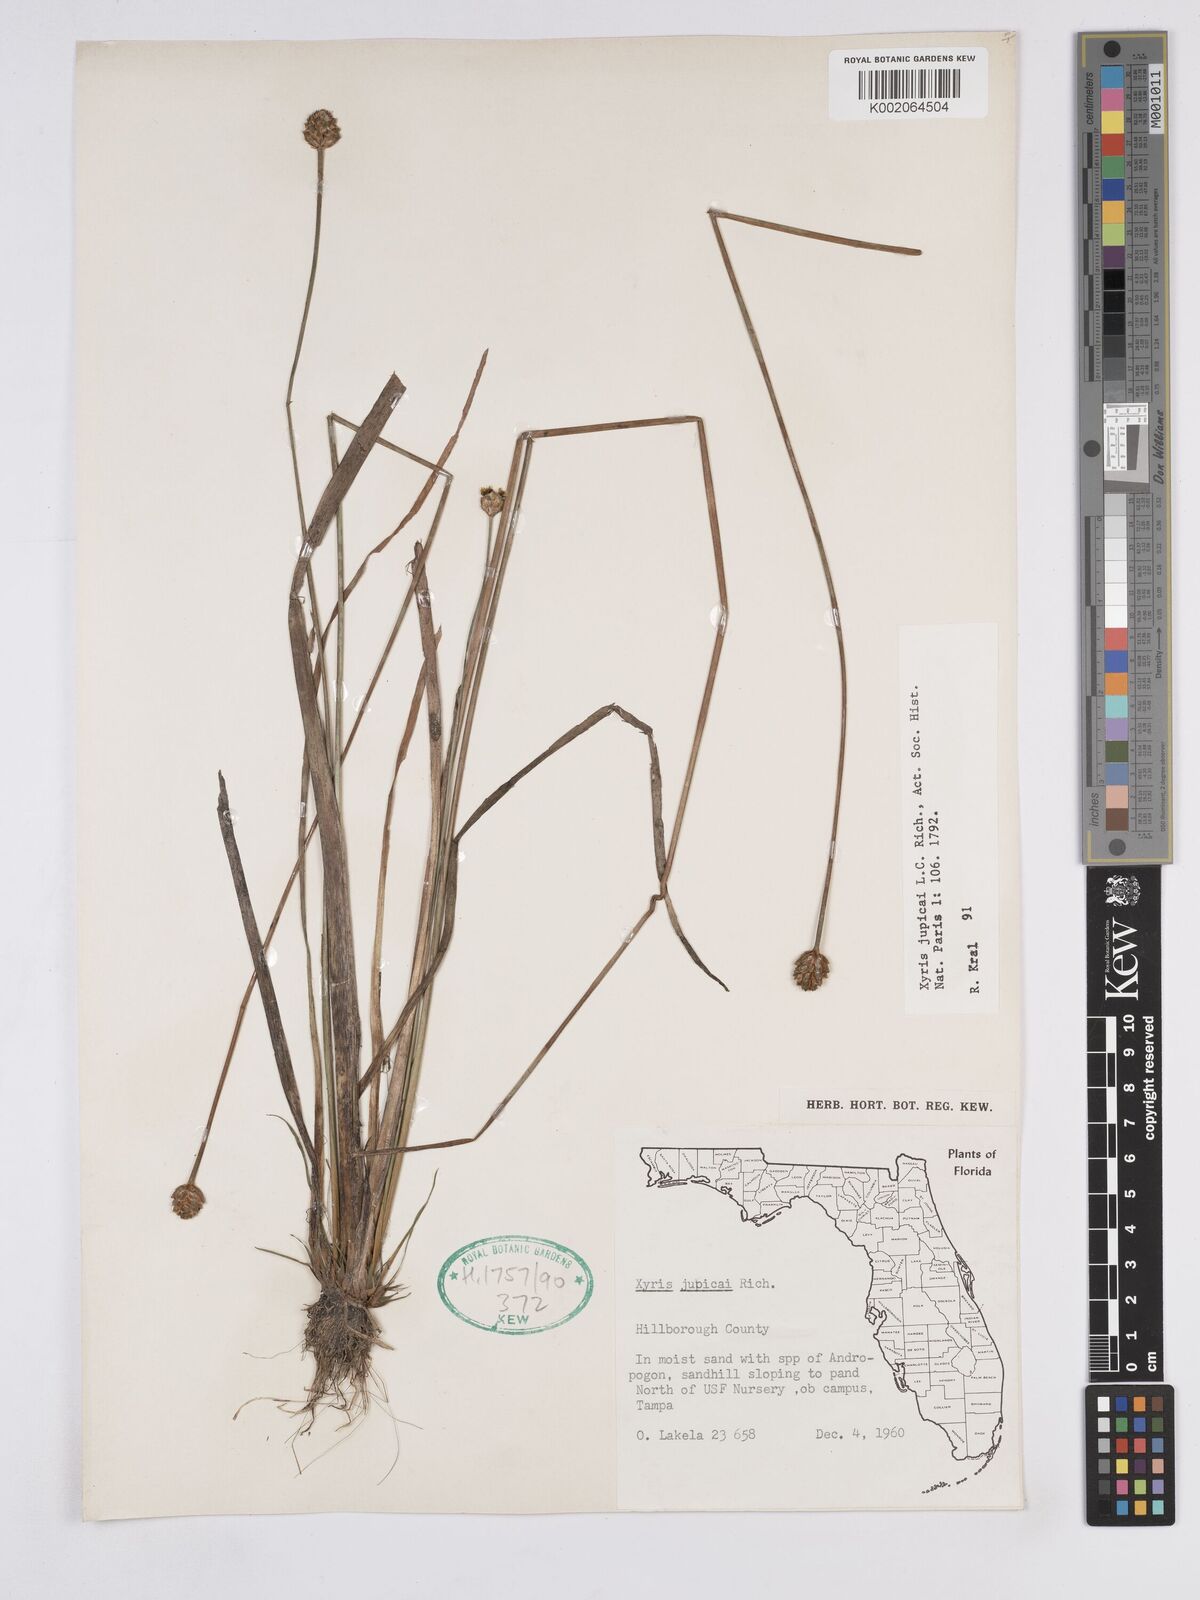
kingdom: Plantae
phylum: Tracheophyta
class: Liliopsida
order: Poales
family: Xyridaceae
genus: Xyris
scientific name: Xyris jupicai
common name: Richard's yelloweyed grass
